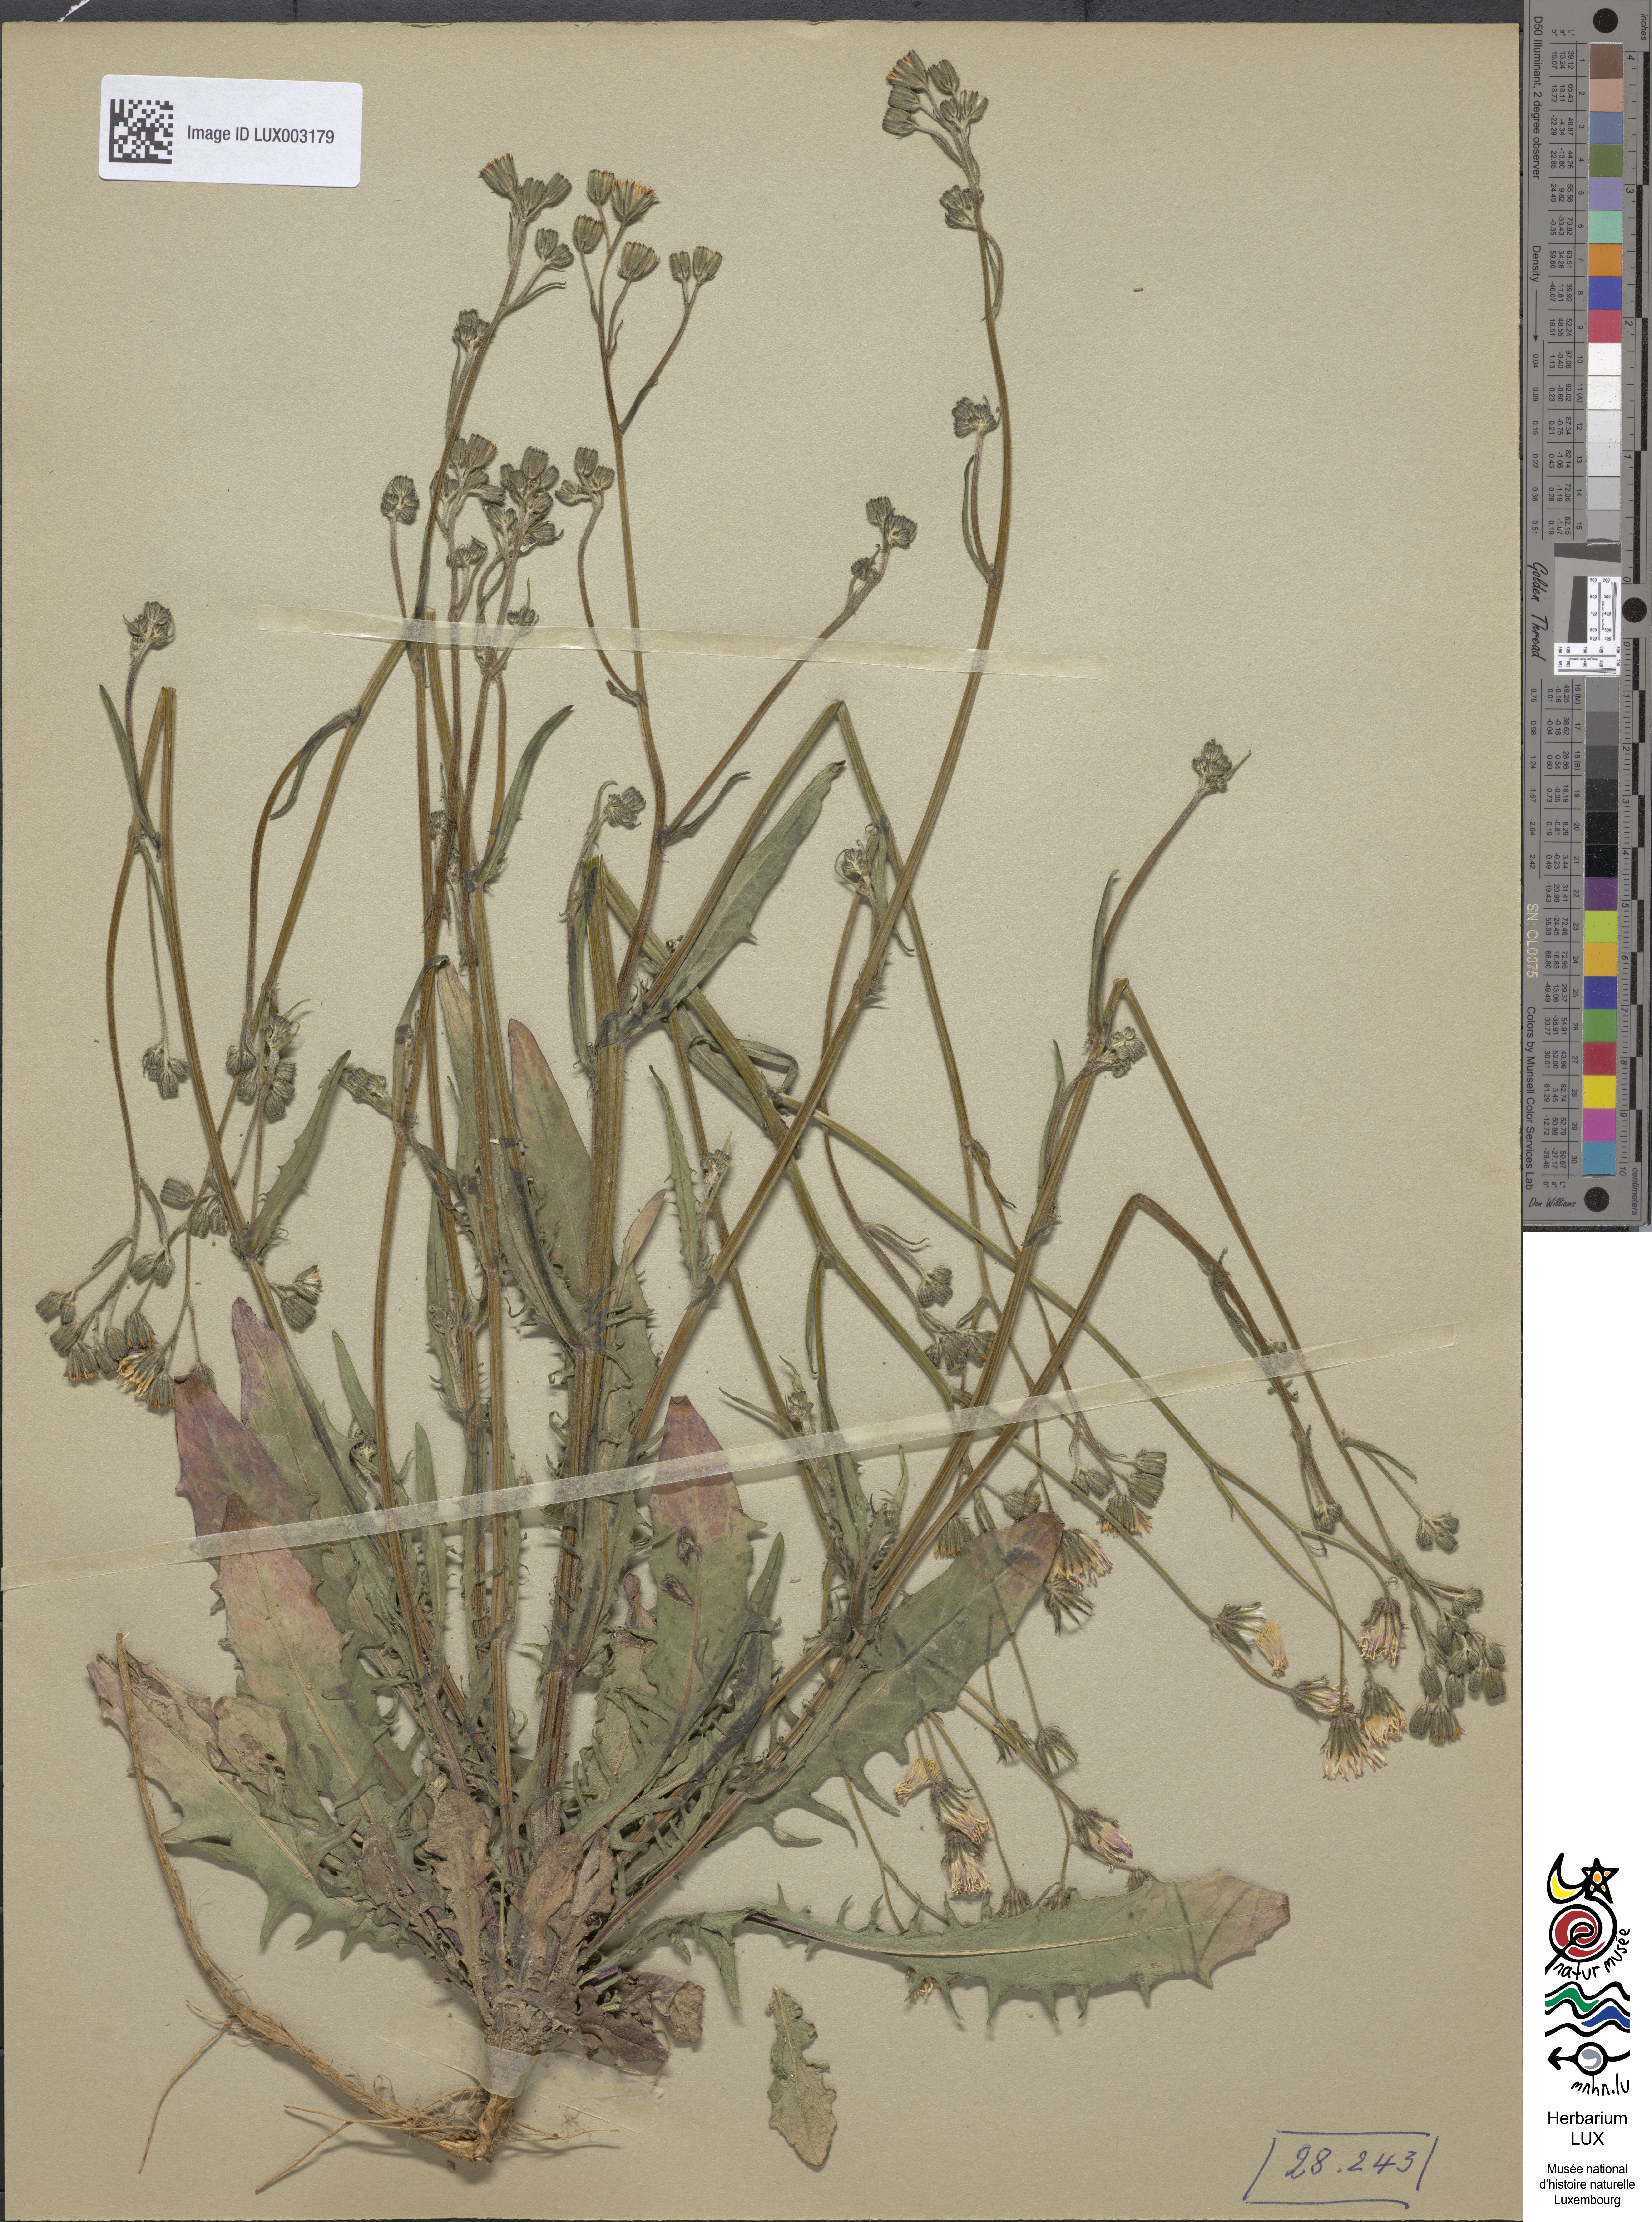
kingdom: Plantae
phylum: Tracheophyta
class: Magnoliopsida
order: Asterales
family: Asteraceae
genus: Crepis
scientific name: Crepis capillaris
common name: Smooth hawksbeard
